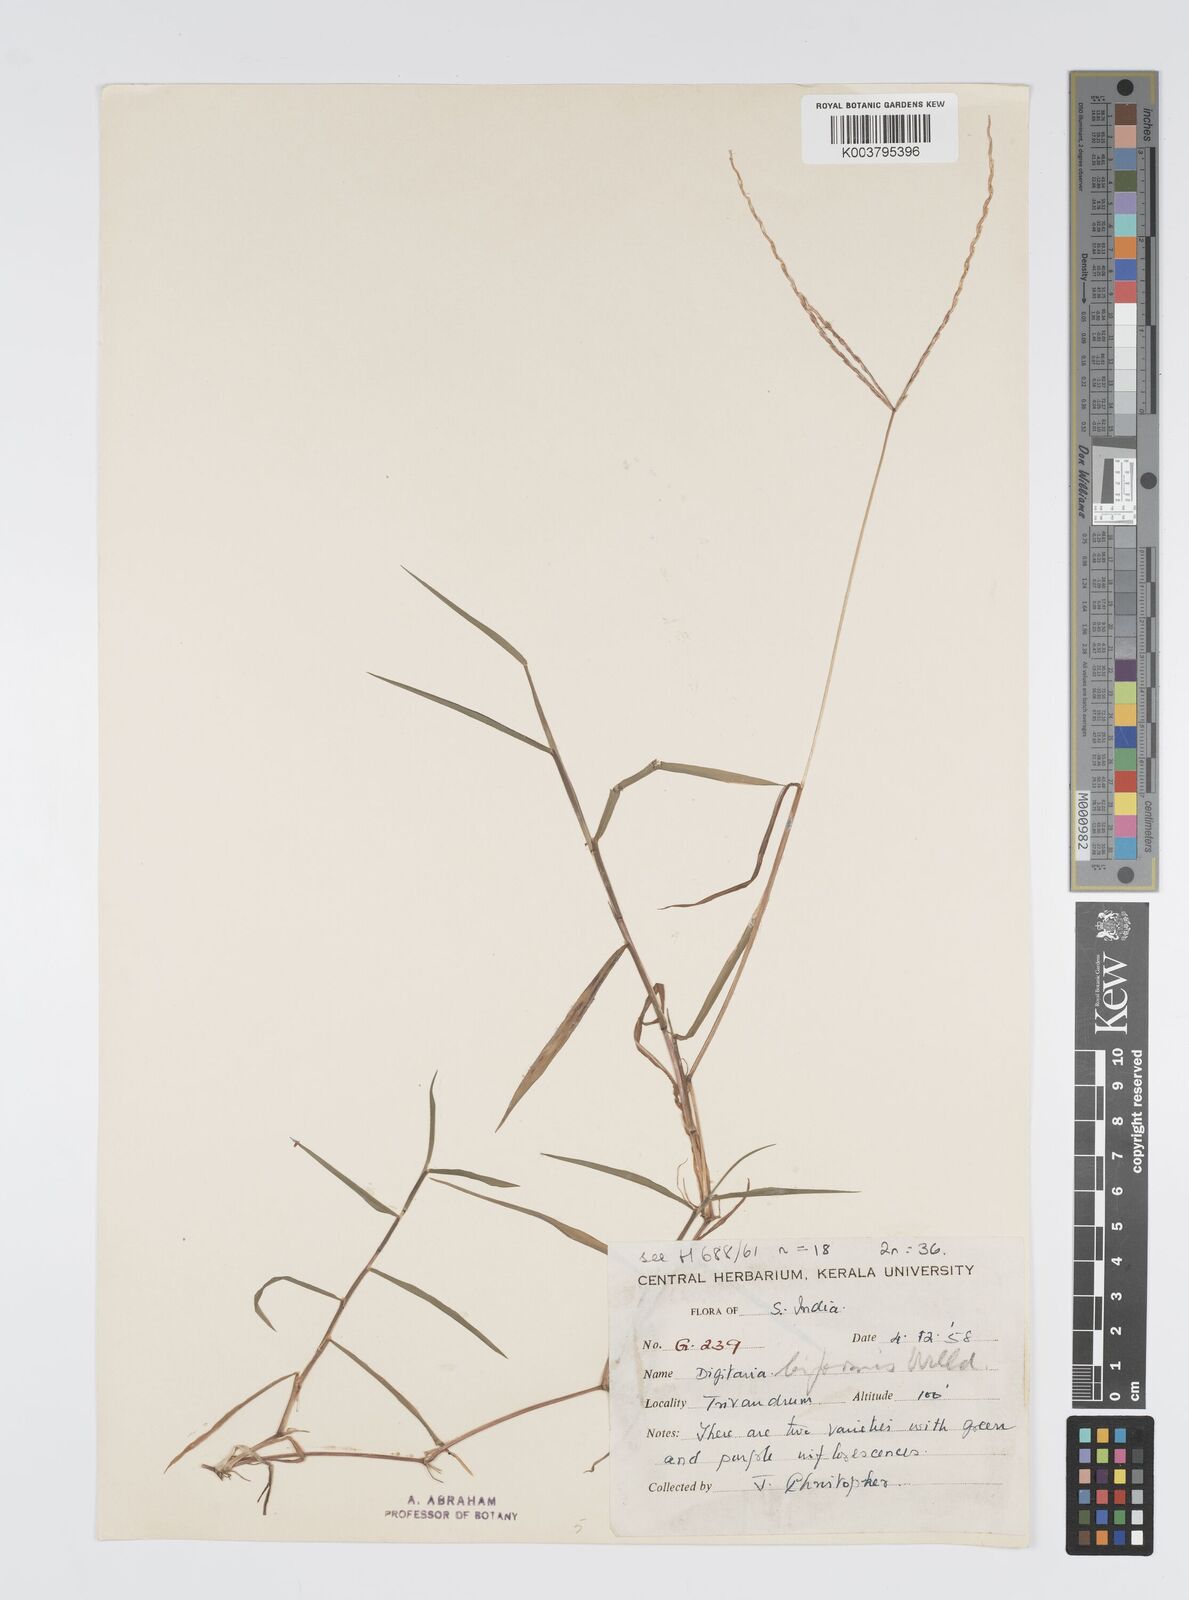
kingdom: Plantae
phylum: Tracheophyta
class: Liliopsida
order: Poales
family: Poaceae
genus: Digitaria
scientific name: Digitaria ciliaris
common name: Tropical finger-grass
